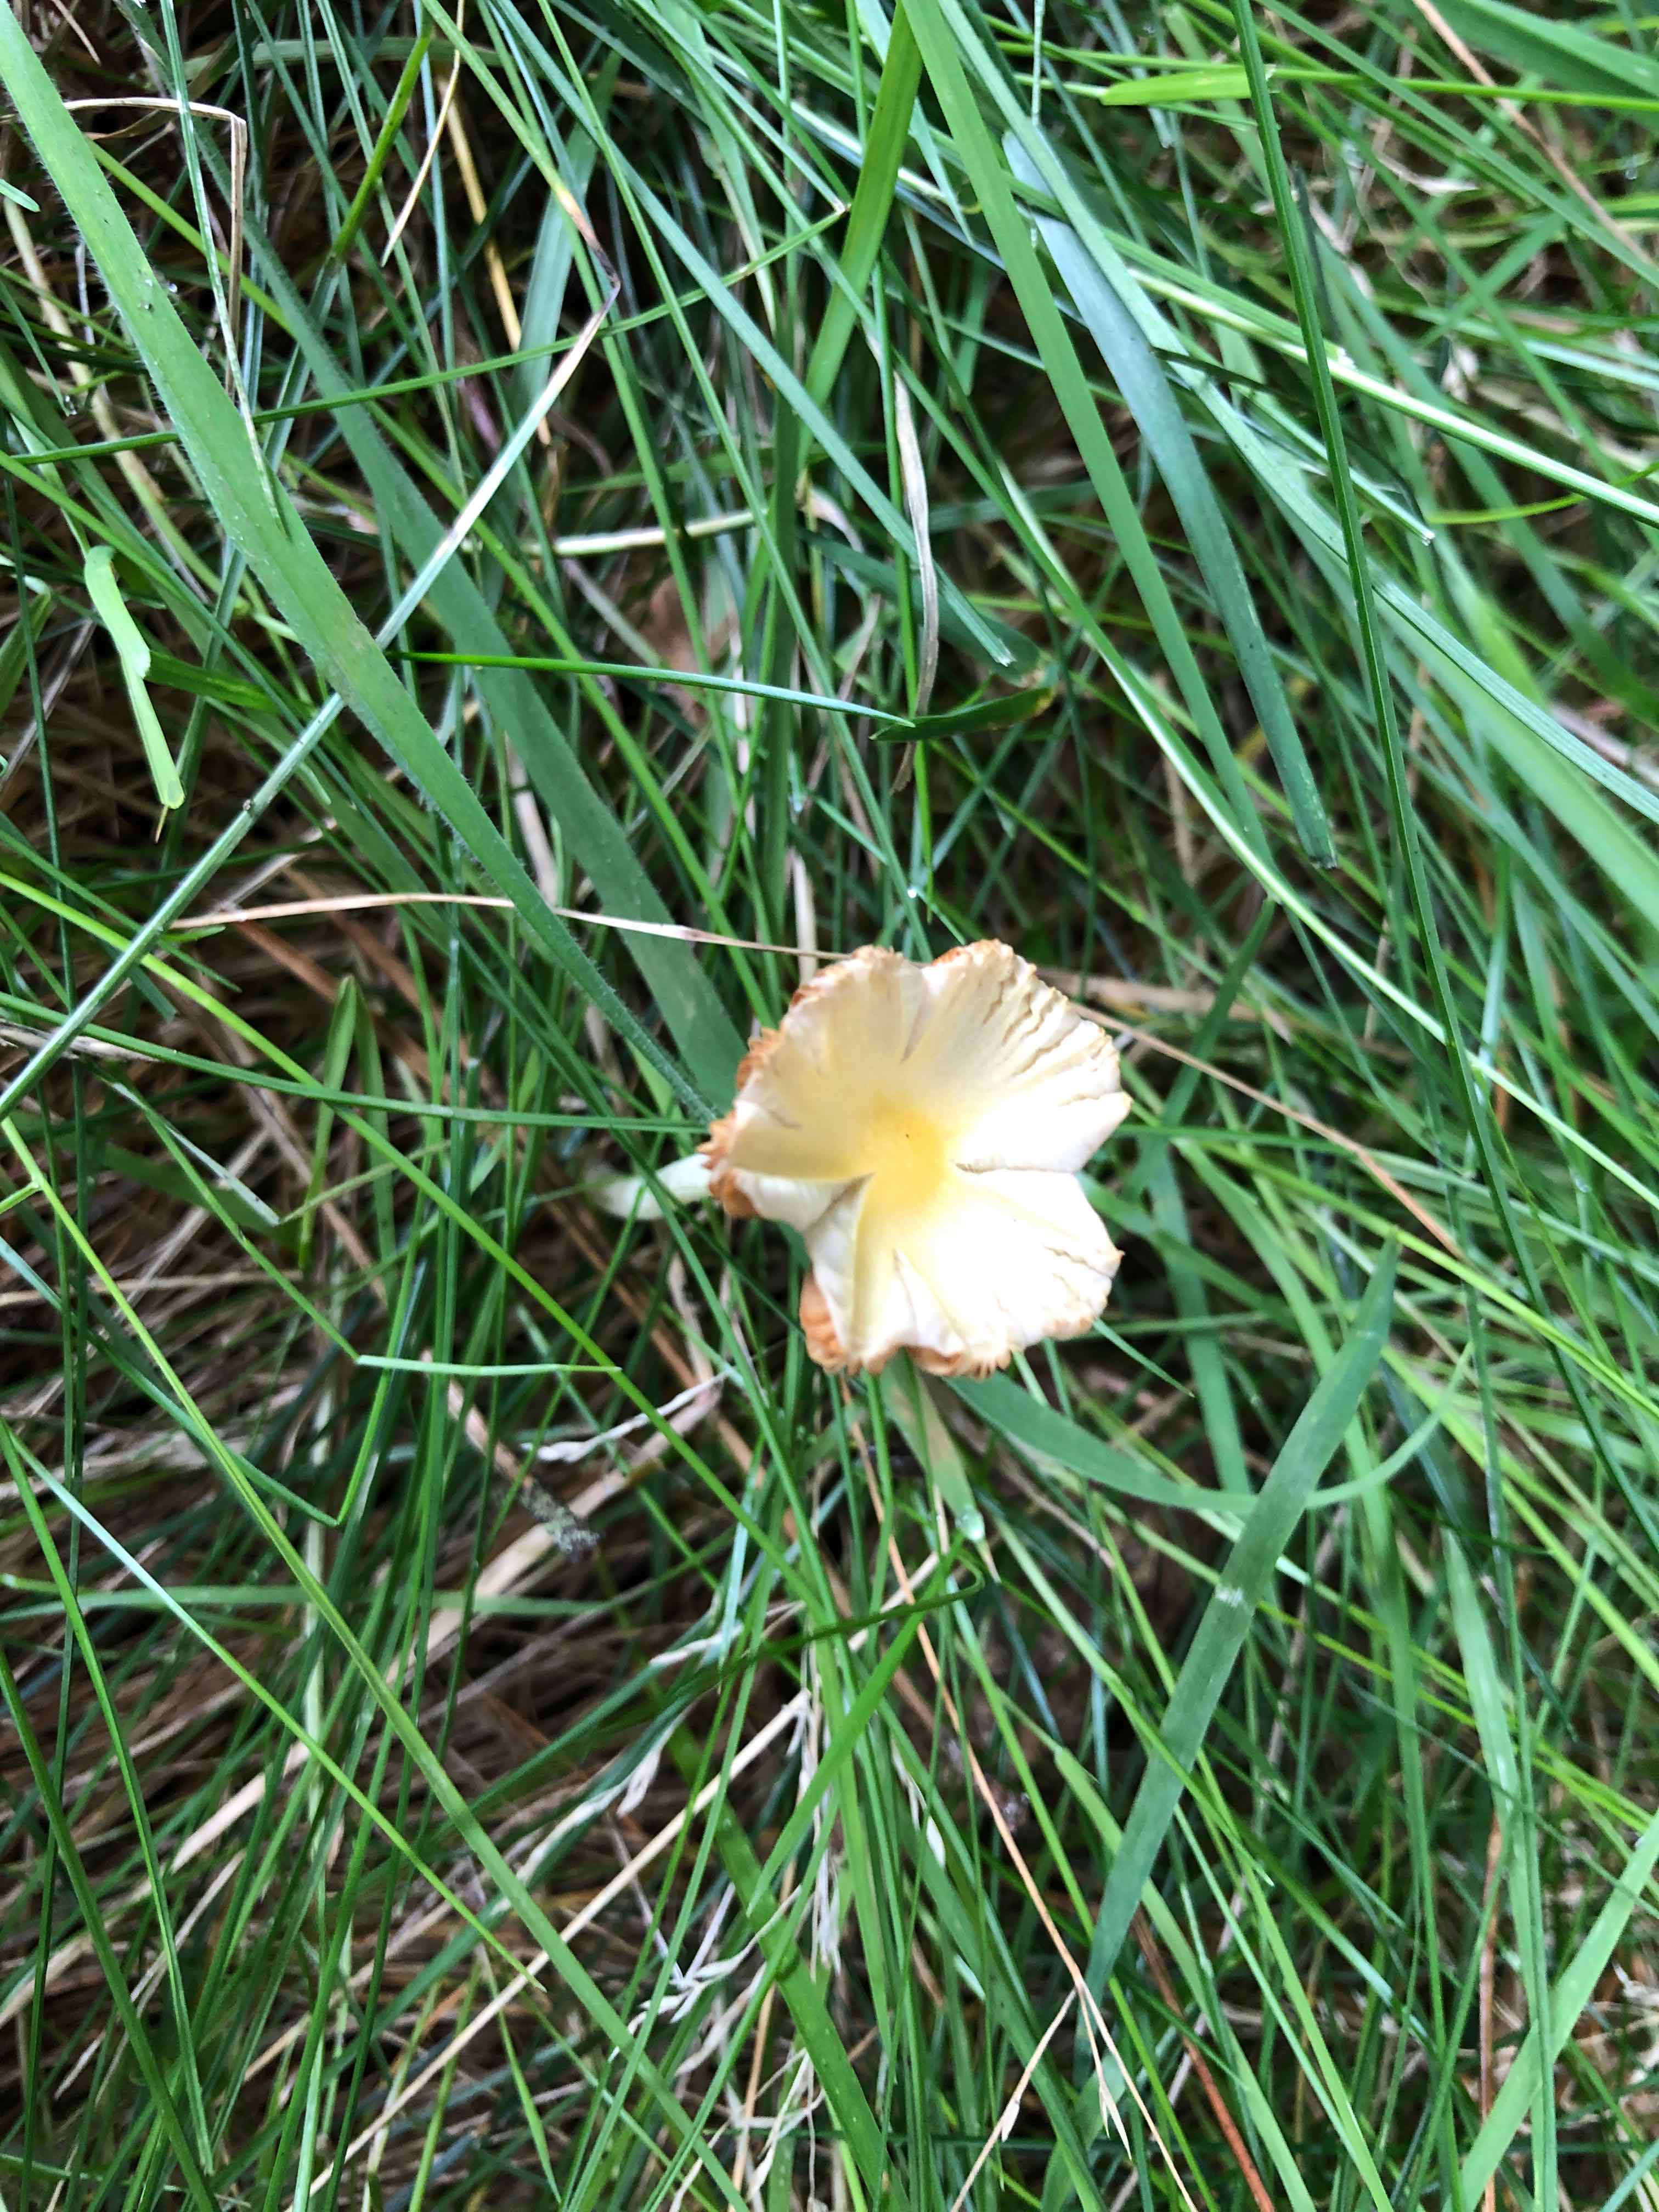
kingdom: Fungi
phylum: Basidiomycota
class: Agaricomycetes
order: Agaricales
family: Bolbitiaceae
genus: Bolbitius
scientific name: Bolbitius titubans
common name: almindelig gulhat
